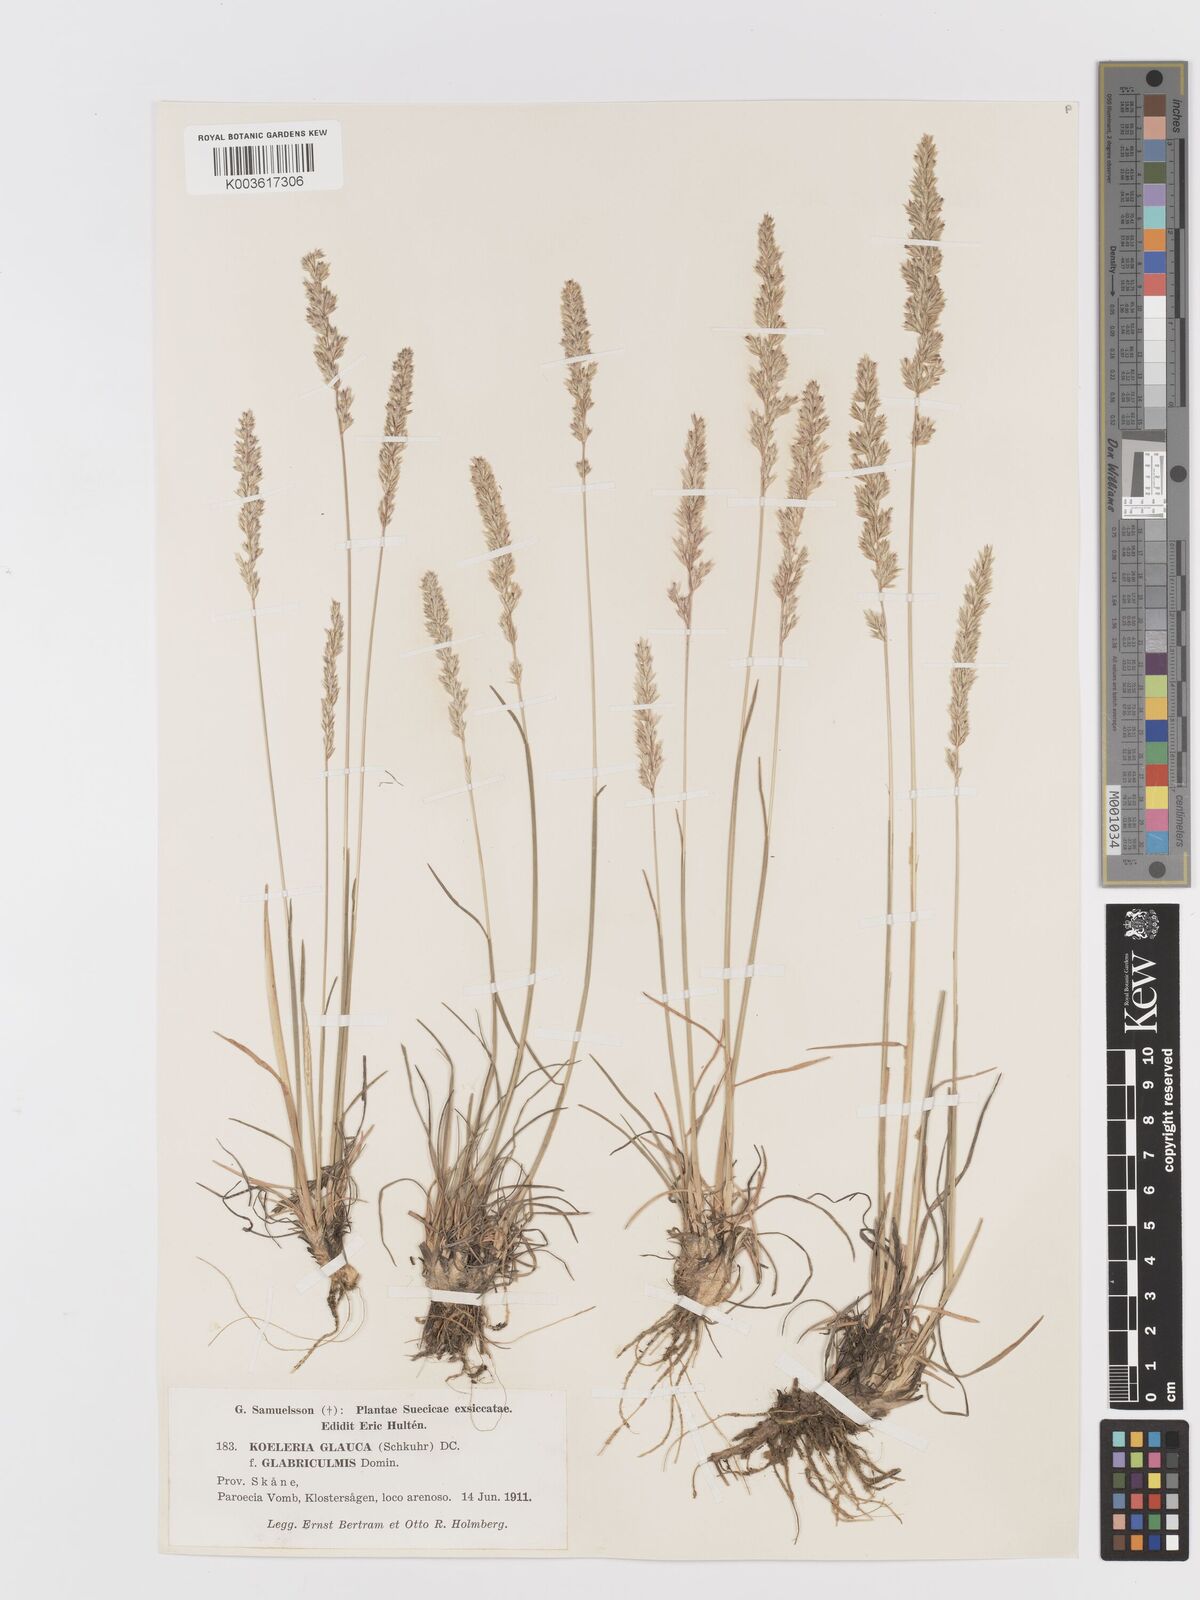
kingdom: Plantae
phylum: Tracheophyta
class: Liliopsida
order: Poales
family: Poaceae
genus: Koeleria
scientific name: Koeleria glauca
